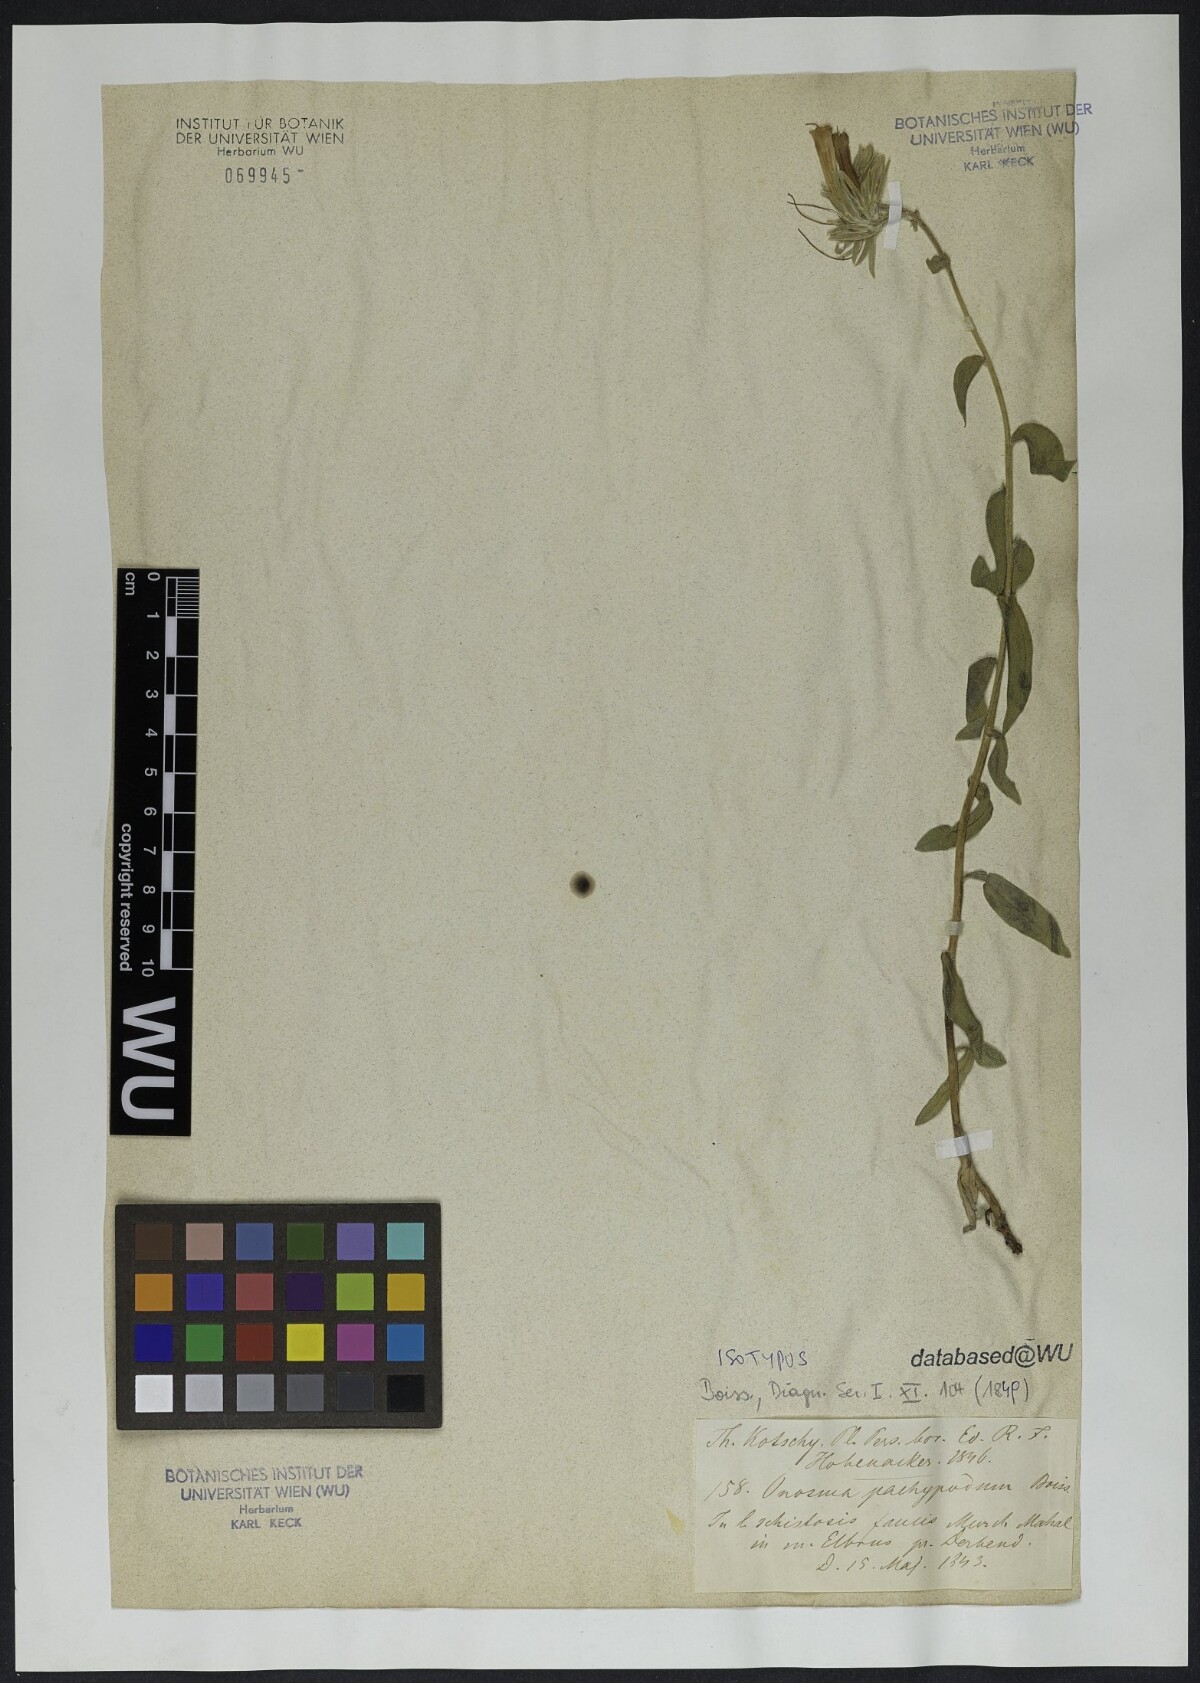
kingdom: Plantae
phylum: Tracheophyta
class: Magnoliopsida
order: Boraginales
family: Boraginaceae
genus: Onosma
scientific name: Onosma pachypoda
